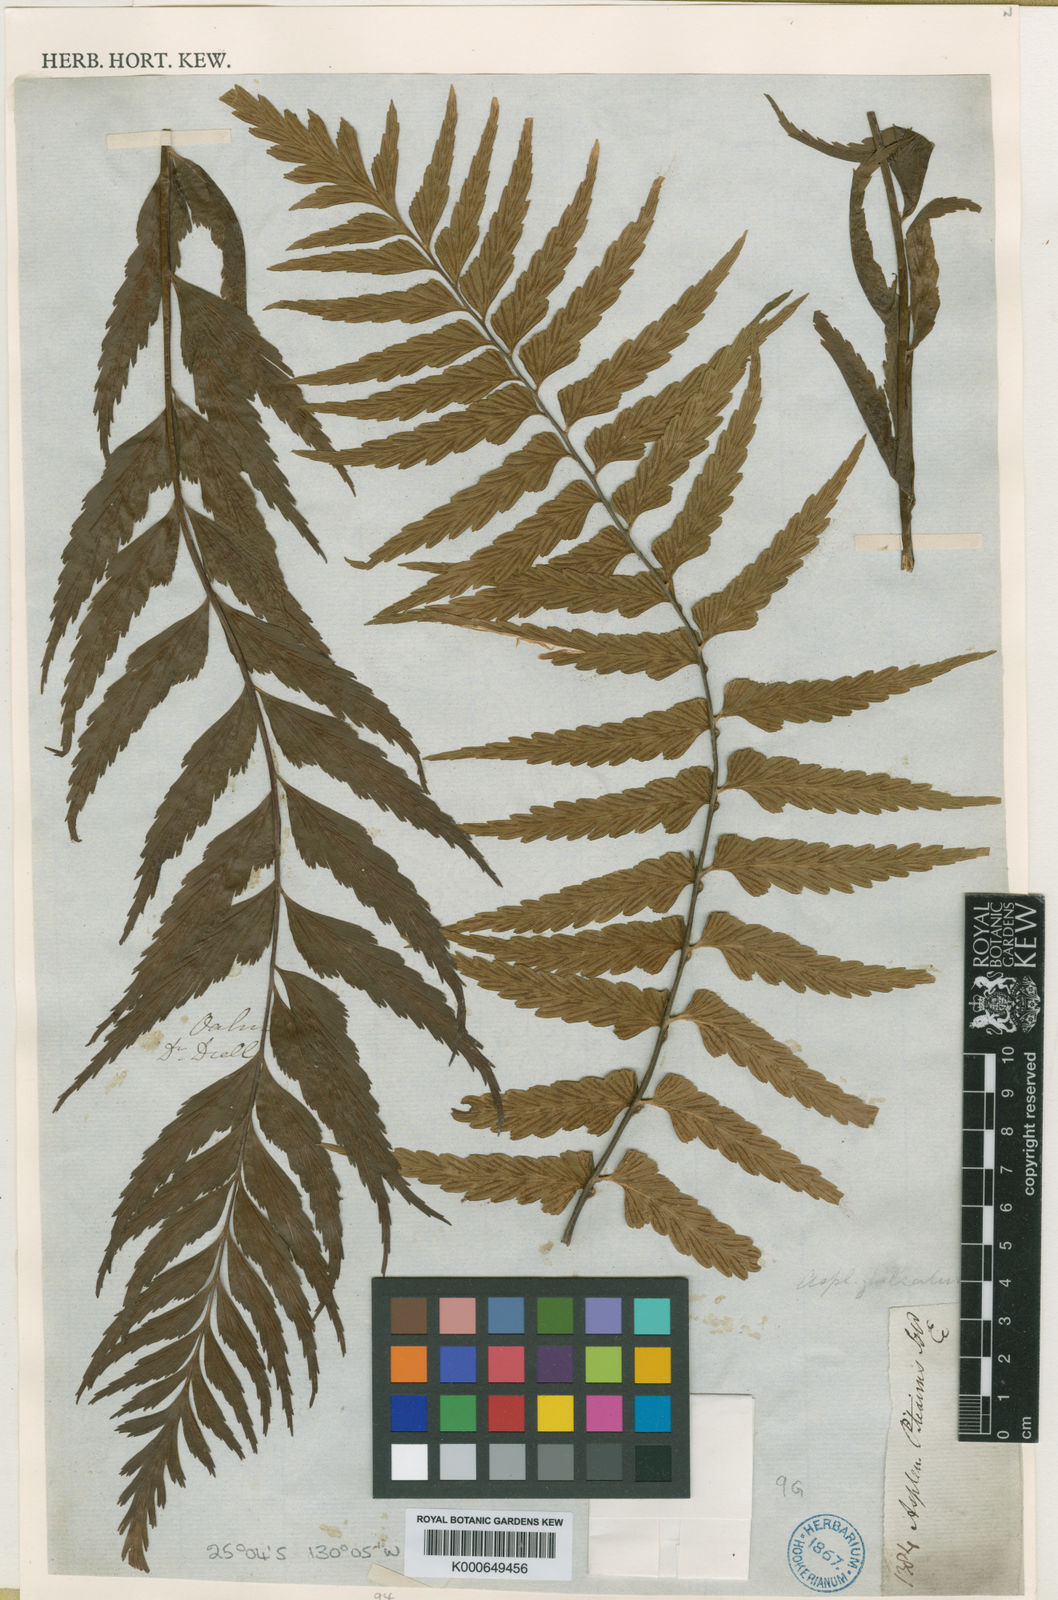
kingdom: Plantae
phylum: Tracheophyta
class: Polypodiopsida
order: Polypodiales
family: Aspleniaceae
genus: Asplenium
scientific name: Asplenium indusiatum
